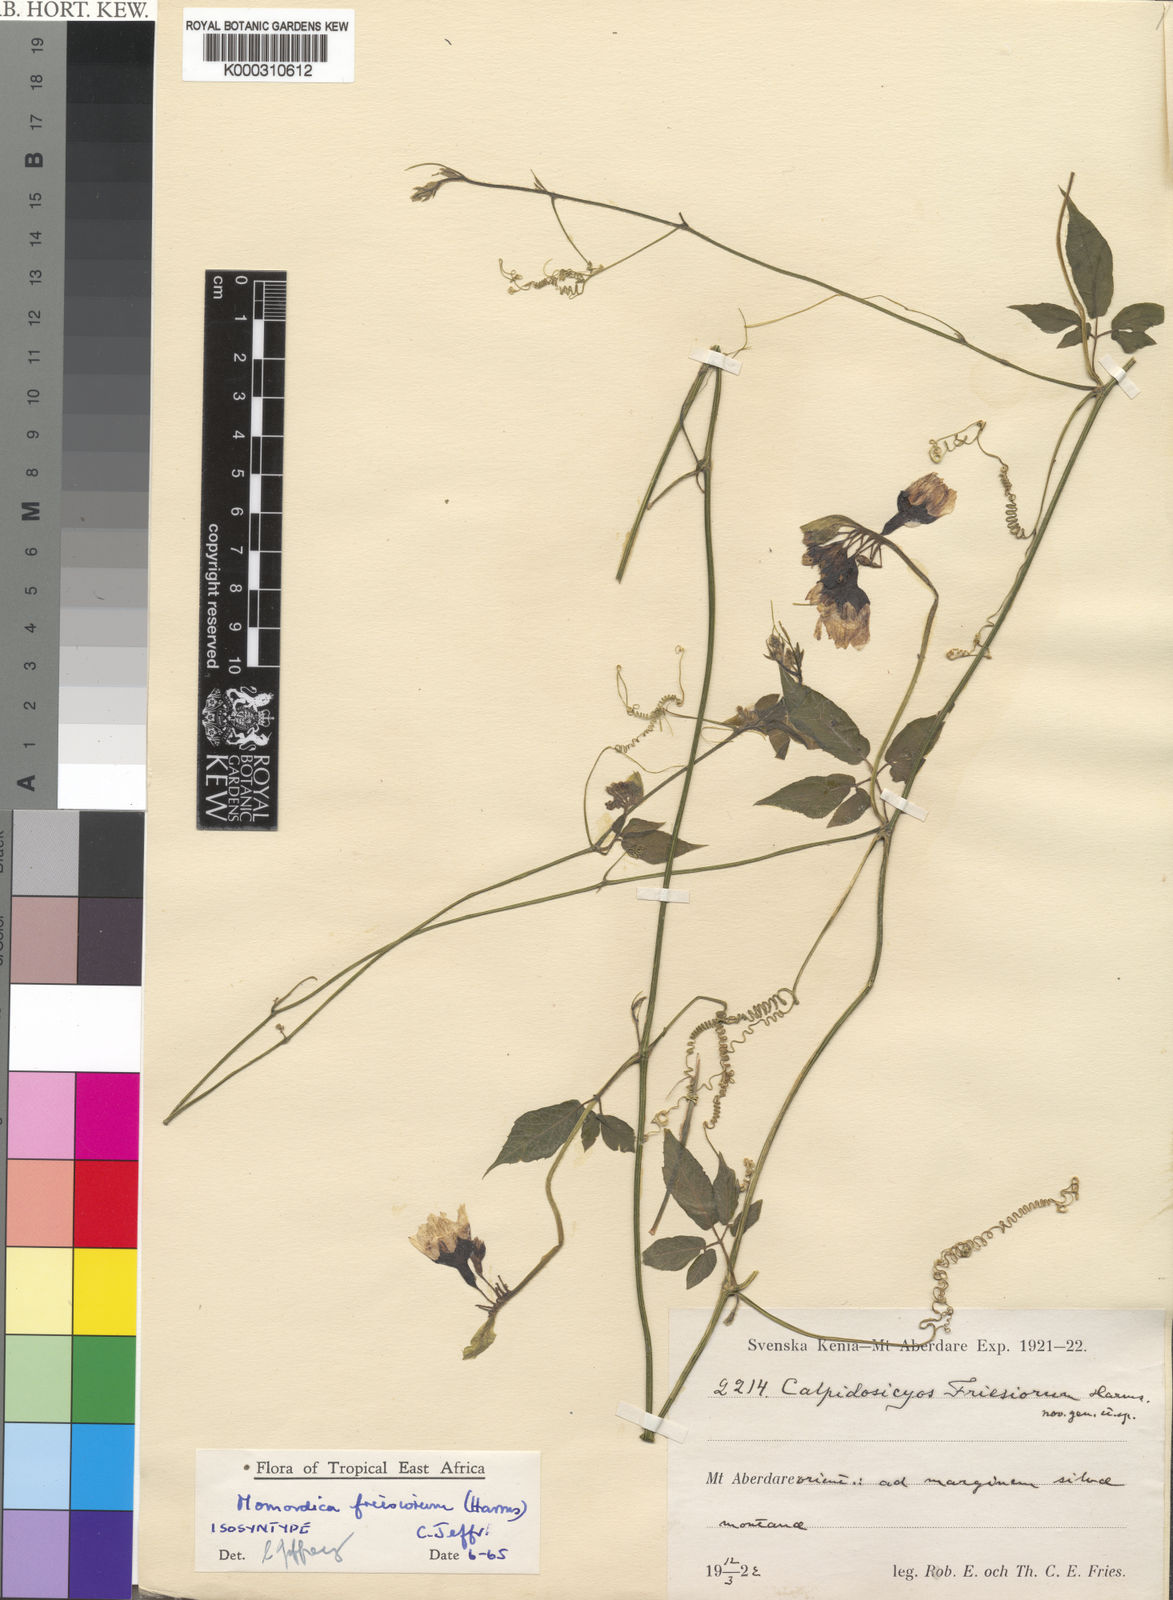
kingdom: Plantae
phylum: Tracheophyta
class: Magnoliopsida
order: Cucurbitales
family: Cucurbitaceae
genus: Momordica
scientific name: Momordica friesiorum
